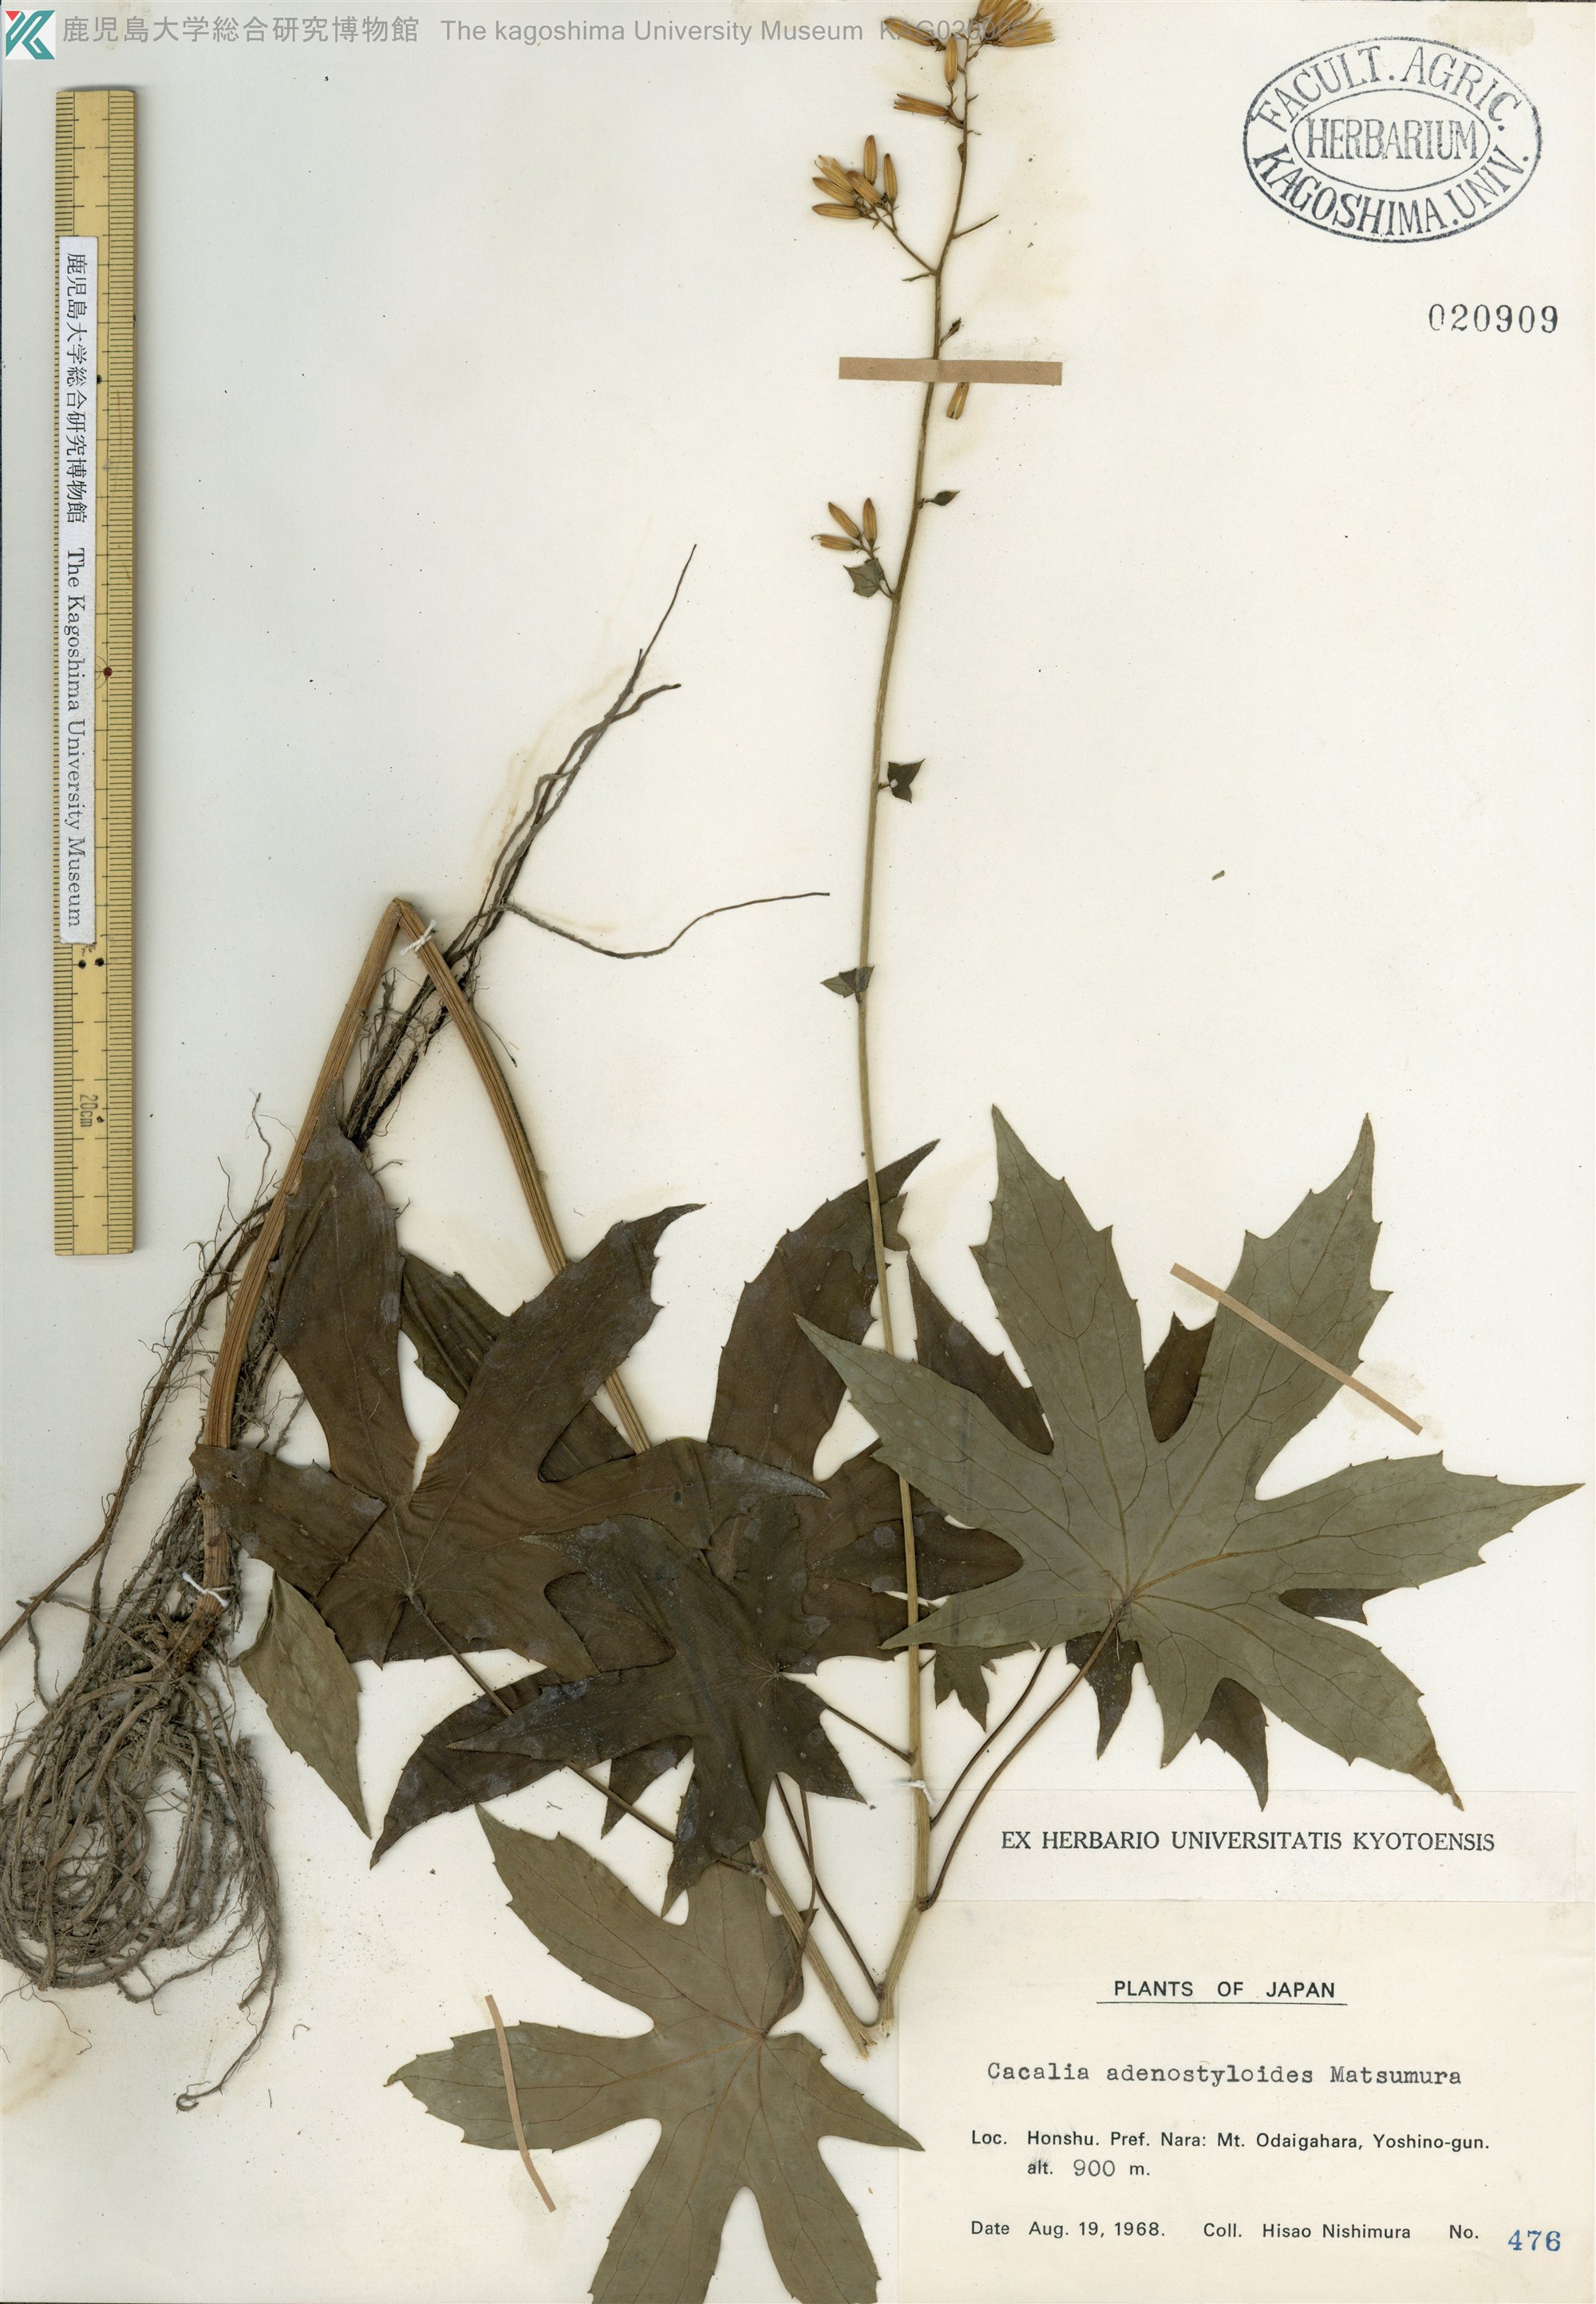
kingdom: Plantae
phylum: Tracheophyta
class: Magnoliopsida
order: Asterales
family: Asteraceae
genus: Japonicalia
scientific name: Japonicalia delphiniifolia
